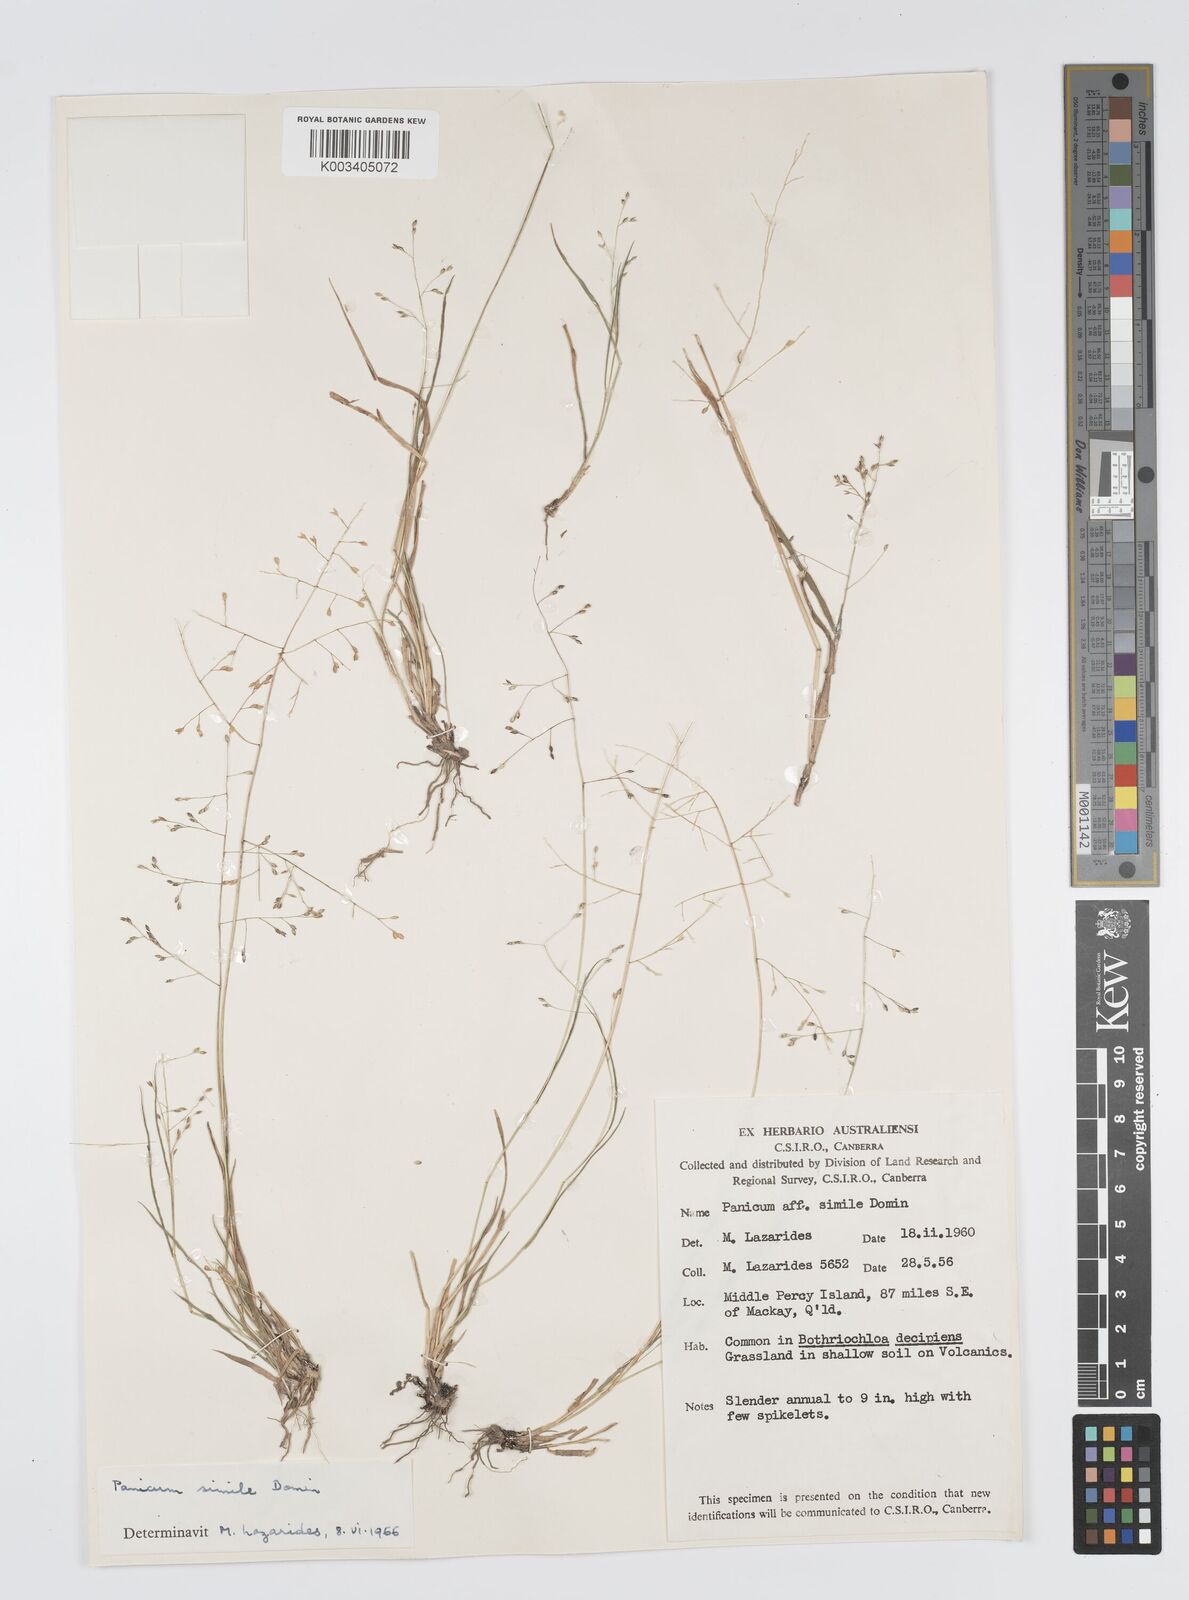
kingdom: Plantae
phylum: Tracheophyta
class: Liliopsida
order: Poales
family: Poaceae
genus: Panicum
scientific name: Panicum simile
